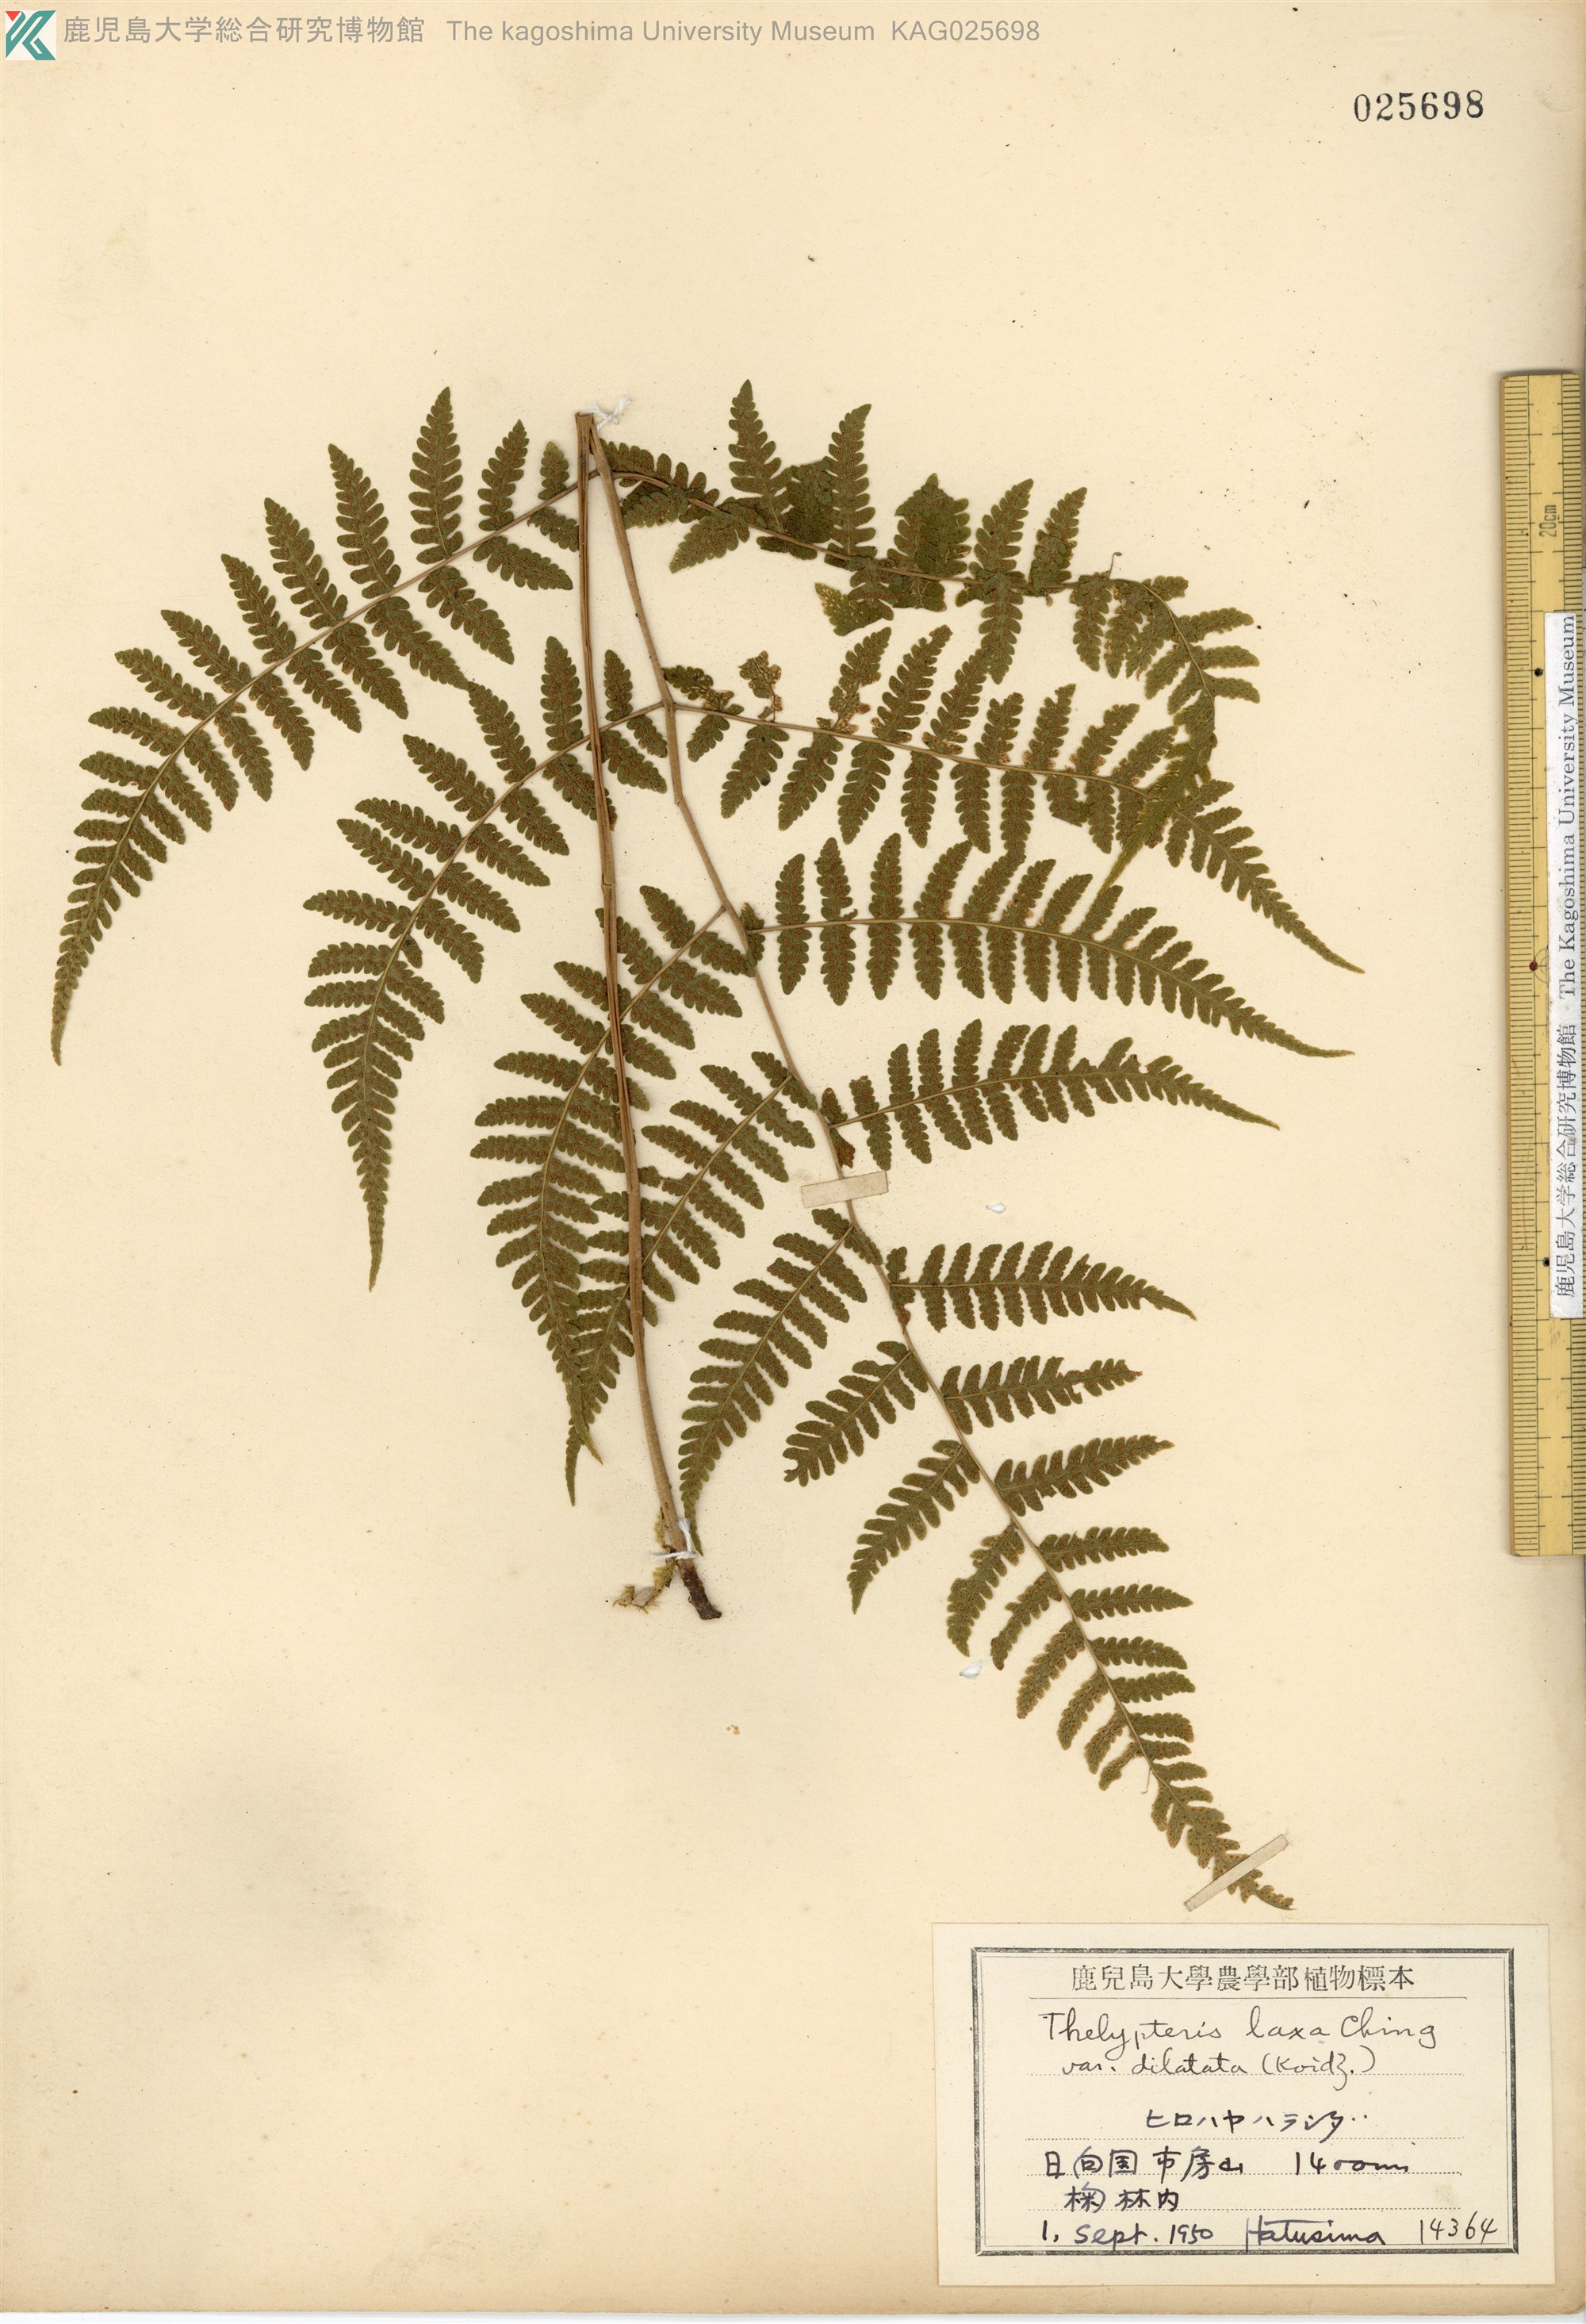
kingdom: Plantae
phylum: Tracheophyta
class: Polypodiopsida
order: Polypodiales
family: Thelypteridaceae
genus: Metathelypteris
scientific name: Metathelypteris hattori
